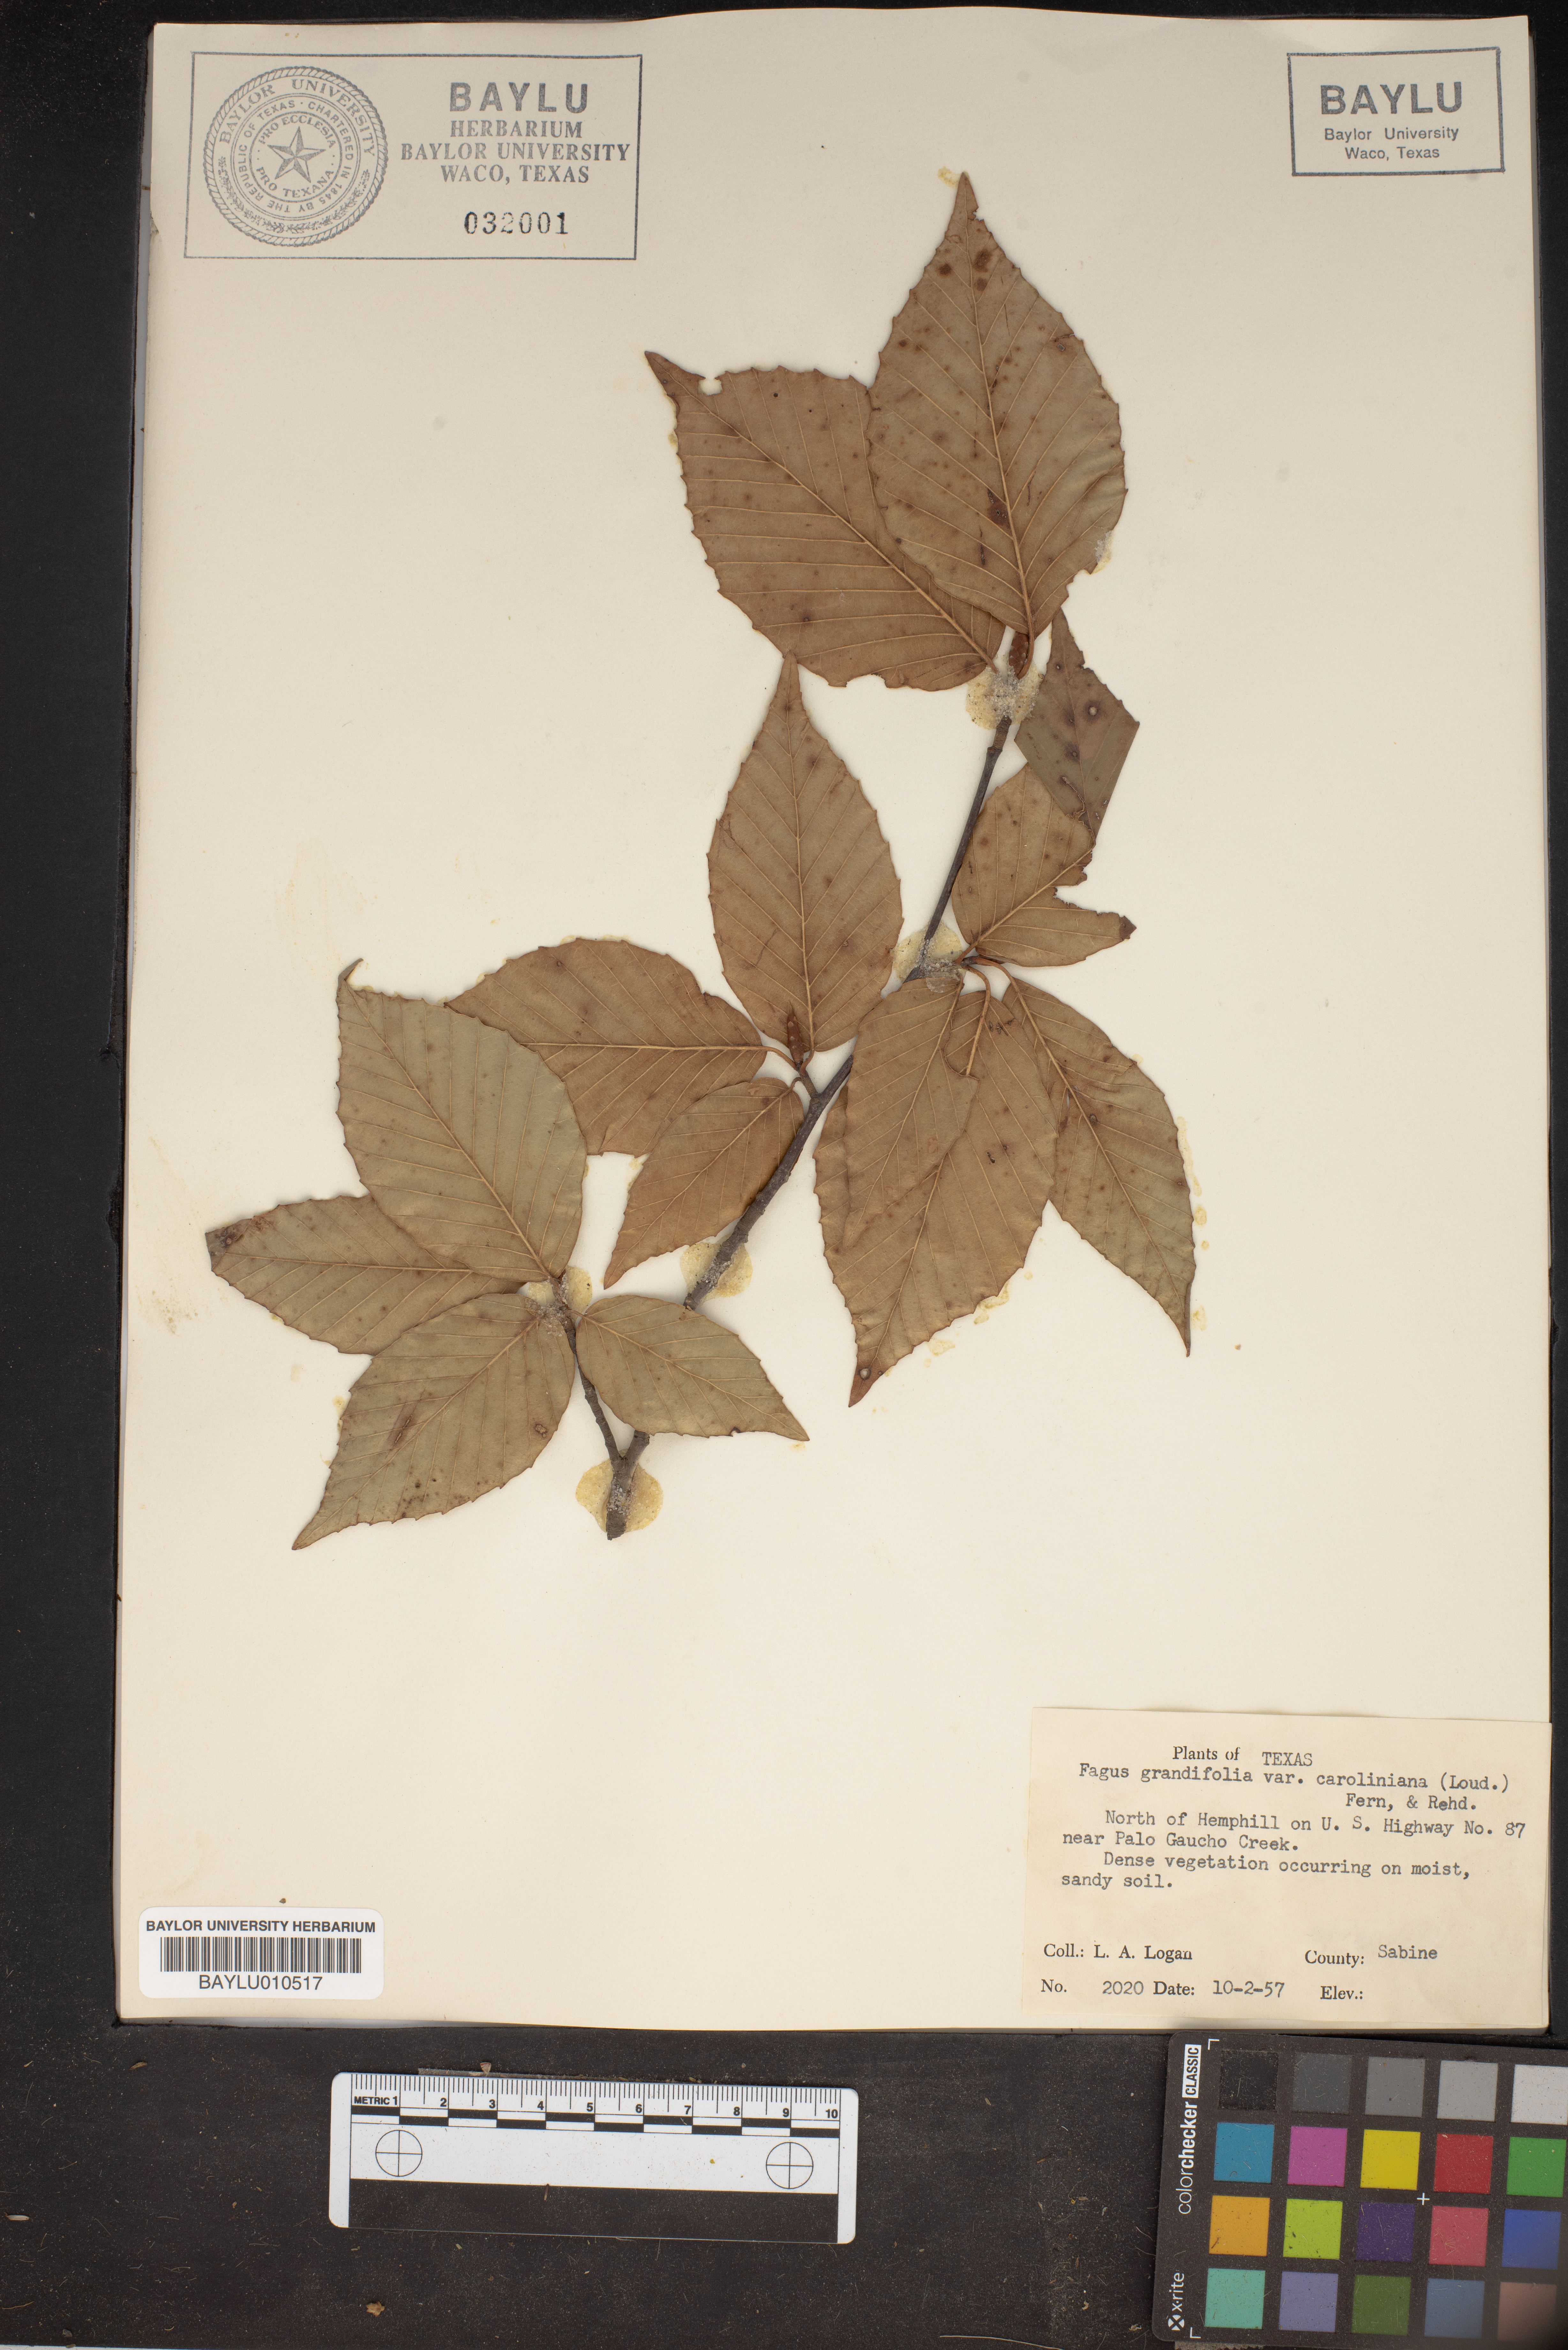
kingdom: Plantae
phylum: Tracheophyta
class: Magnoliopsida
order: Fagales
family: Fagaceae
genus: Fagus
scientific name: Fagus grandifolia
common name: American beech
